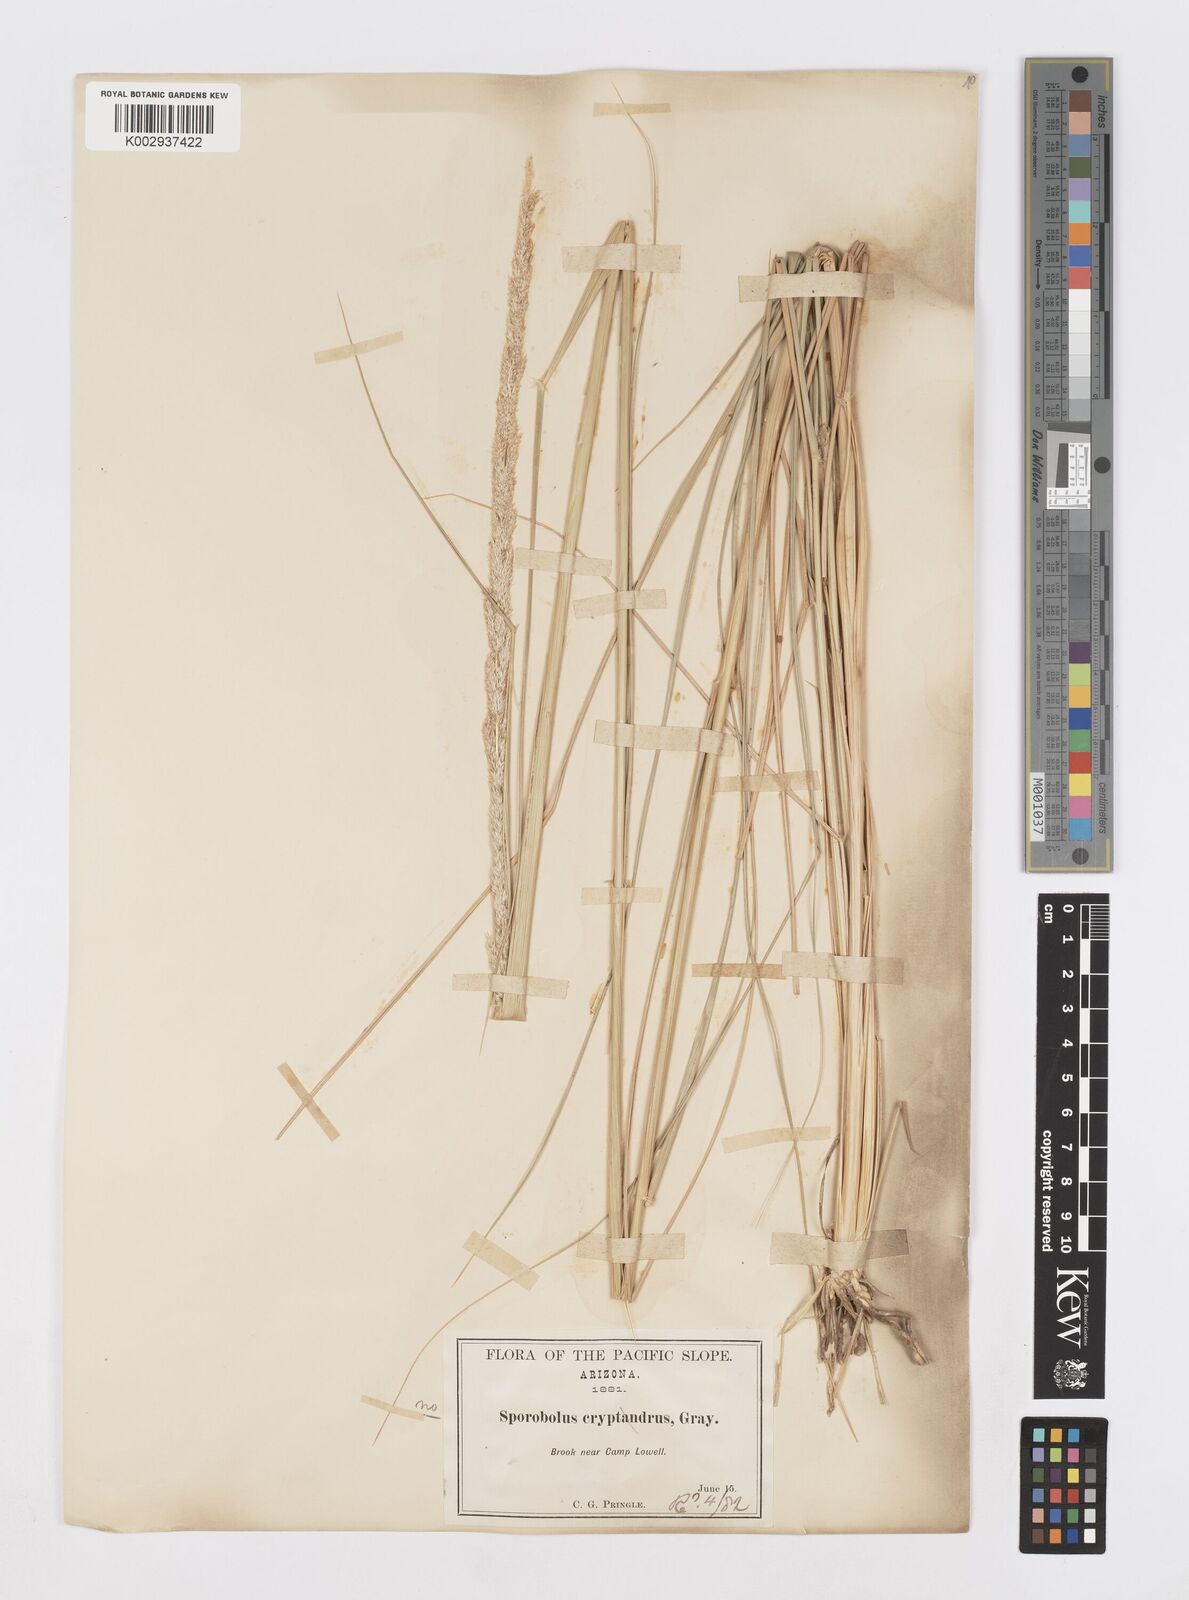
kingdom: Plantae
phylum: Tracheophyta
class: Liliopsida
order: Poales
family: Poaceae
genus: Sporobolus
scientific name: Sporobolus contractus
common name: Spike dropseed
